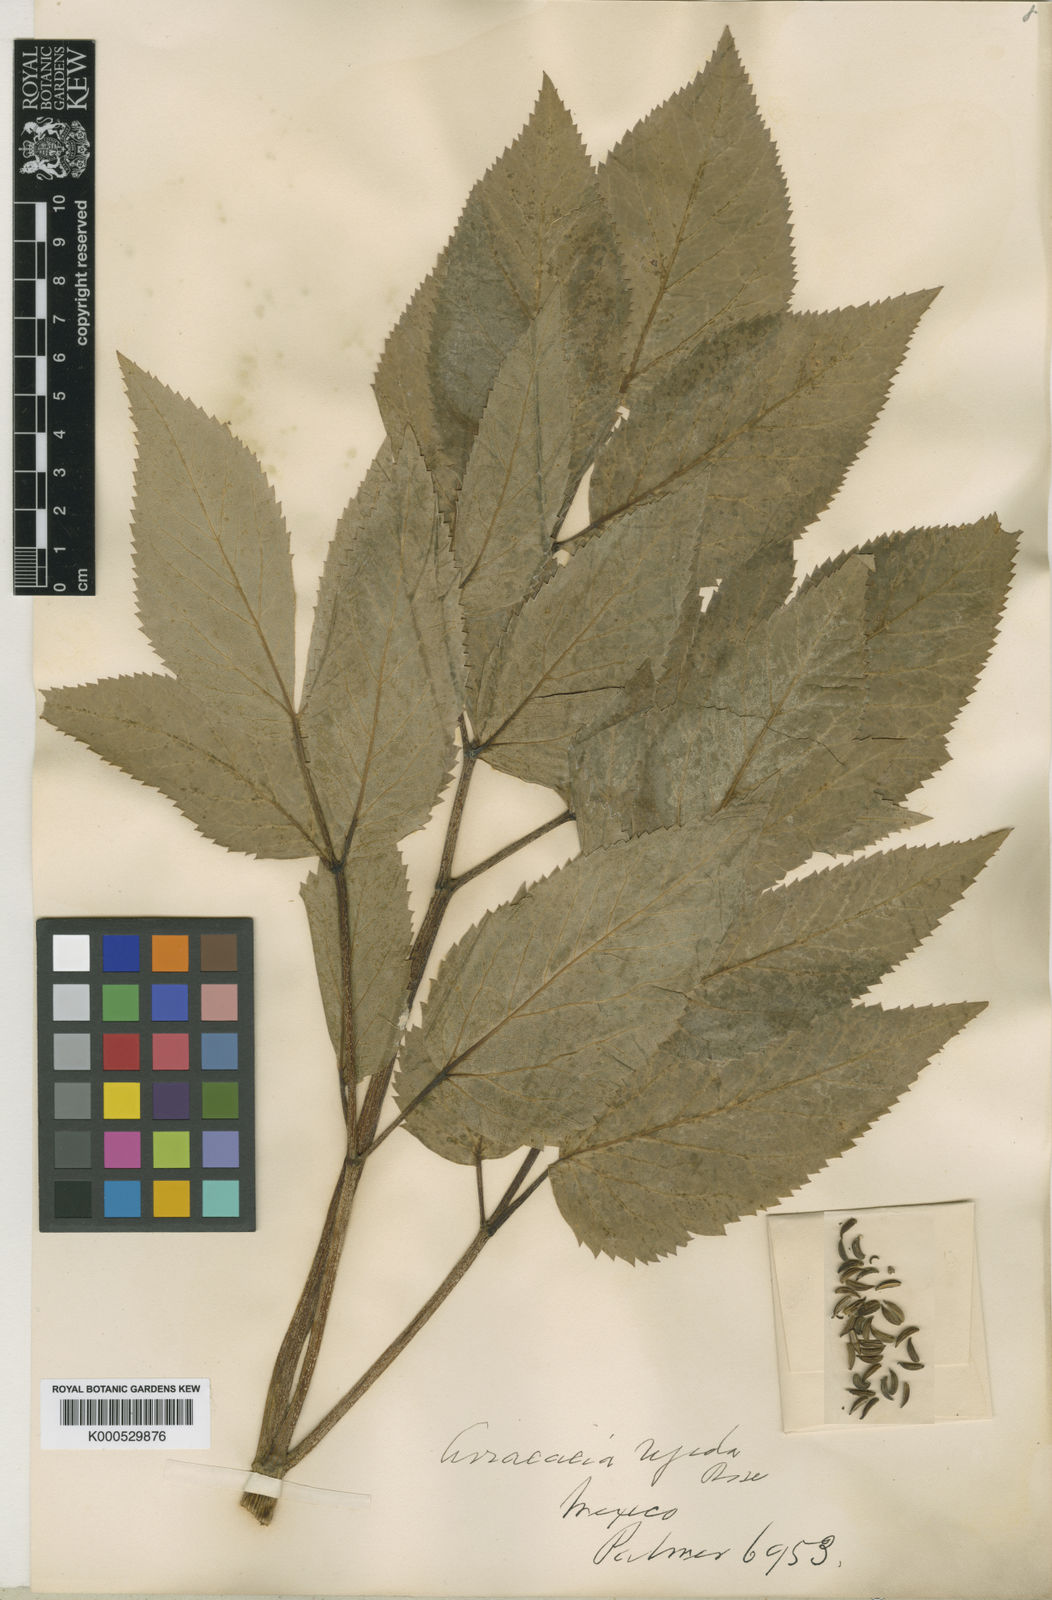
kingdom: Plantae
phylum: Tracheophyta
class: Magnoliopsida
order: Apiales
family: Apiaceae
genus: Arracacia
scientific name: Arracacia rigida
